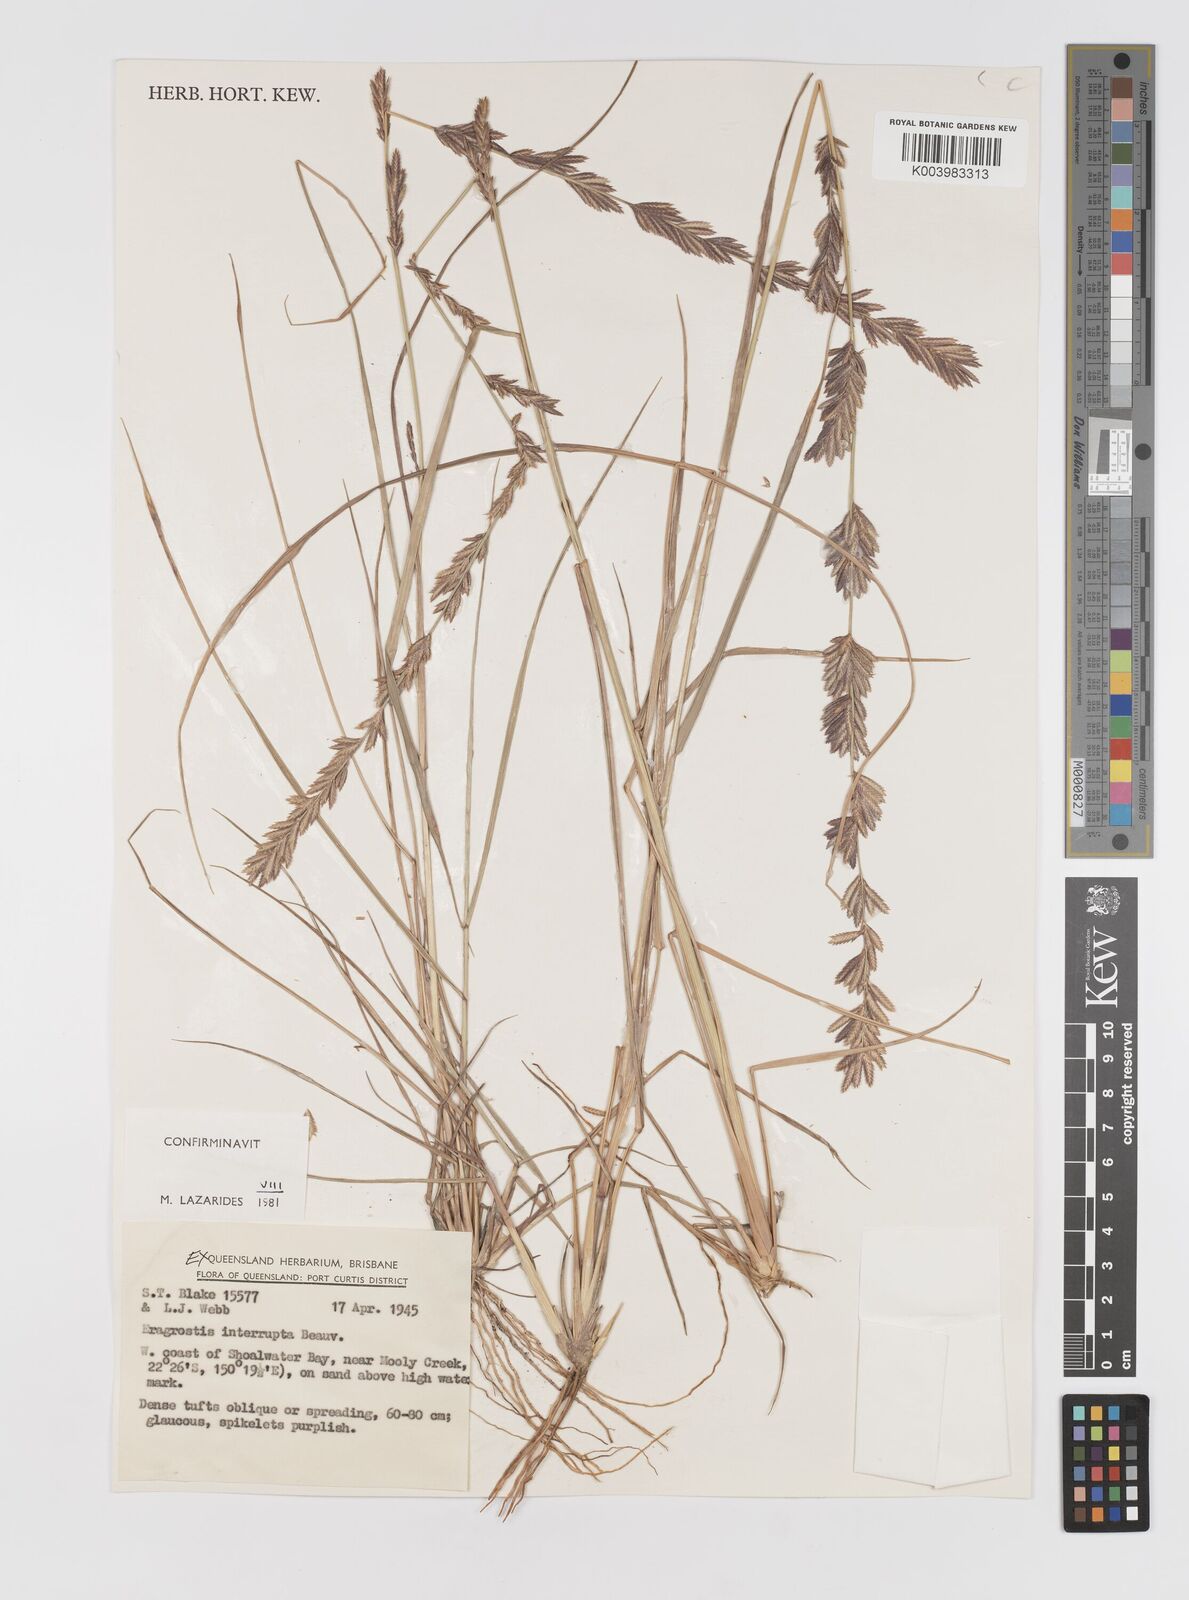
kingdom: Plantae
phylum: Tracheophyta
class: Liliopsida
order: Poales
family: Poaceae
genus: Eragrostis
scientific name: Eragrostis interrupta
